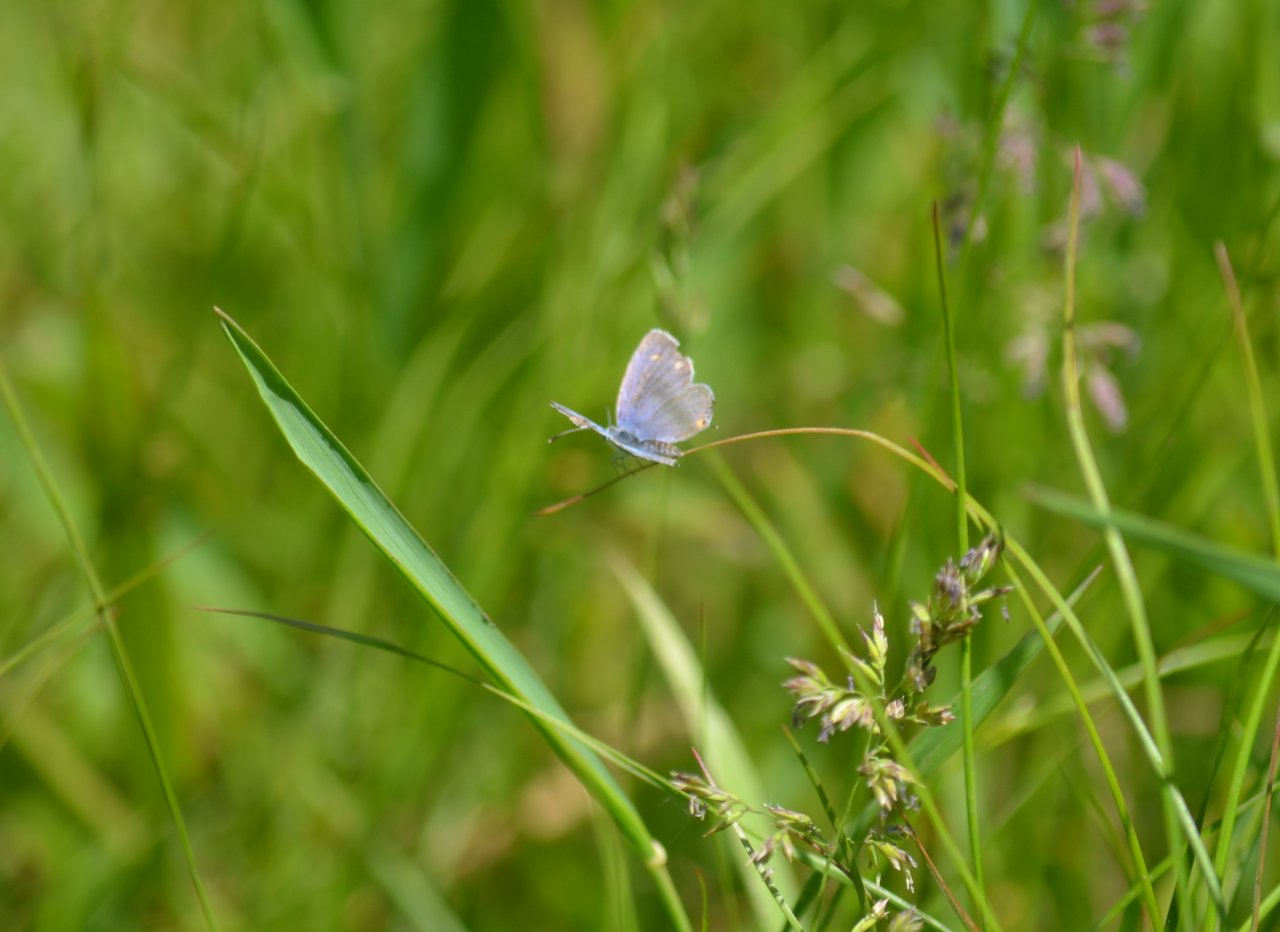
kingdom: Animalia
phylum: Arthropoda
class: Insecta
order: Lepidoptera
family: Lycaenidae
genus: Elkalyce
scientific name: Elkalyce comyntas
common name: Eastern Tailed-Blue
